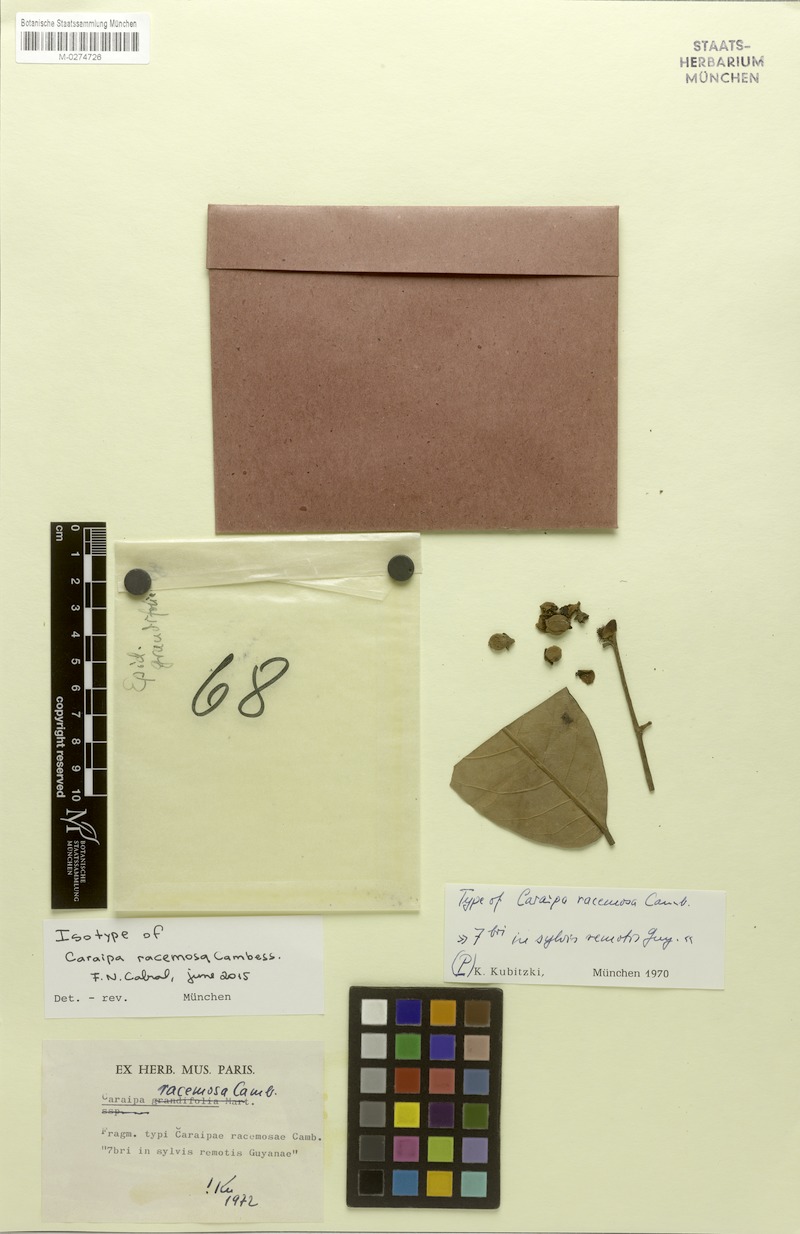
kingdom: Plantae
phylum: Tracheophyta
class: Magnoliopsida
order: Malpighiales
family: Calophyllaceae
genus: Caraipa
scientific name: Caraipa racemosa
